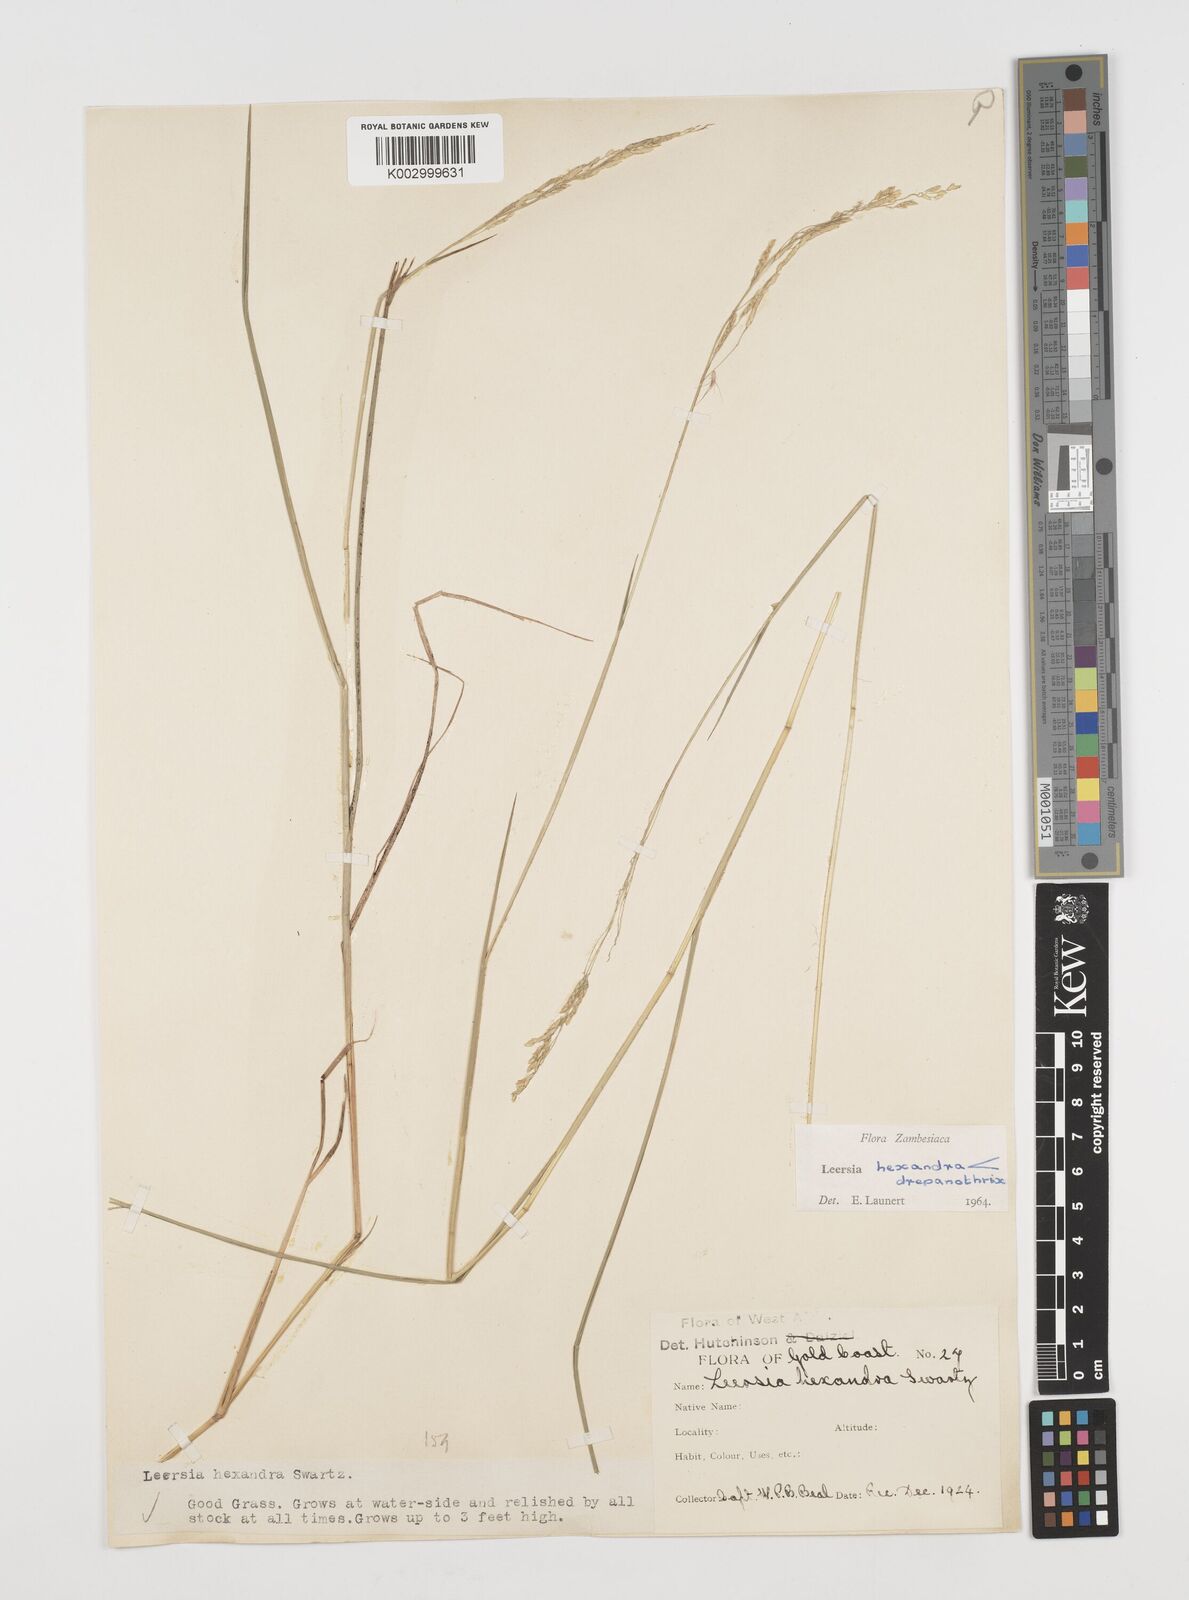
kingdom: Plantae
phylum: Tracheophyta
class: Liliopsida
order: Poales
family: Poaceae
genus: Leersia
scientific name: Leersia drepanothrix
